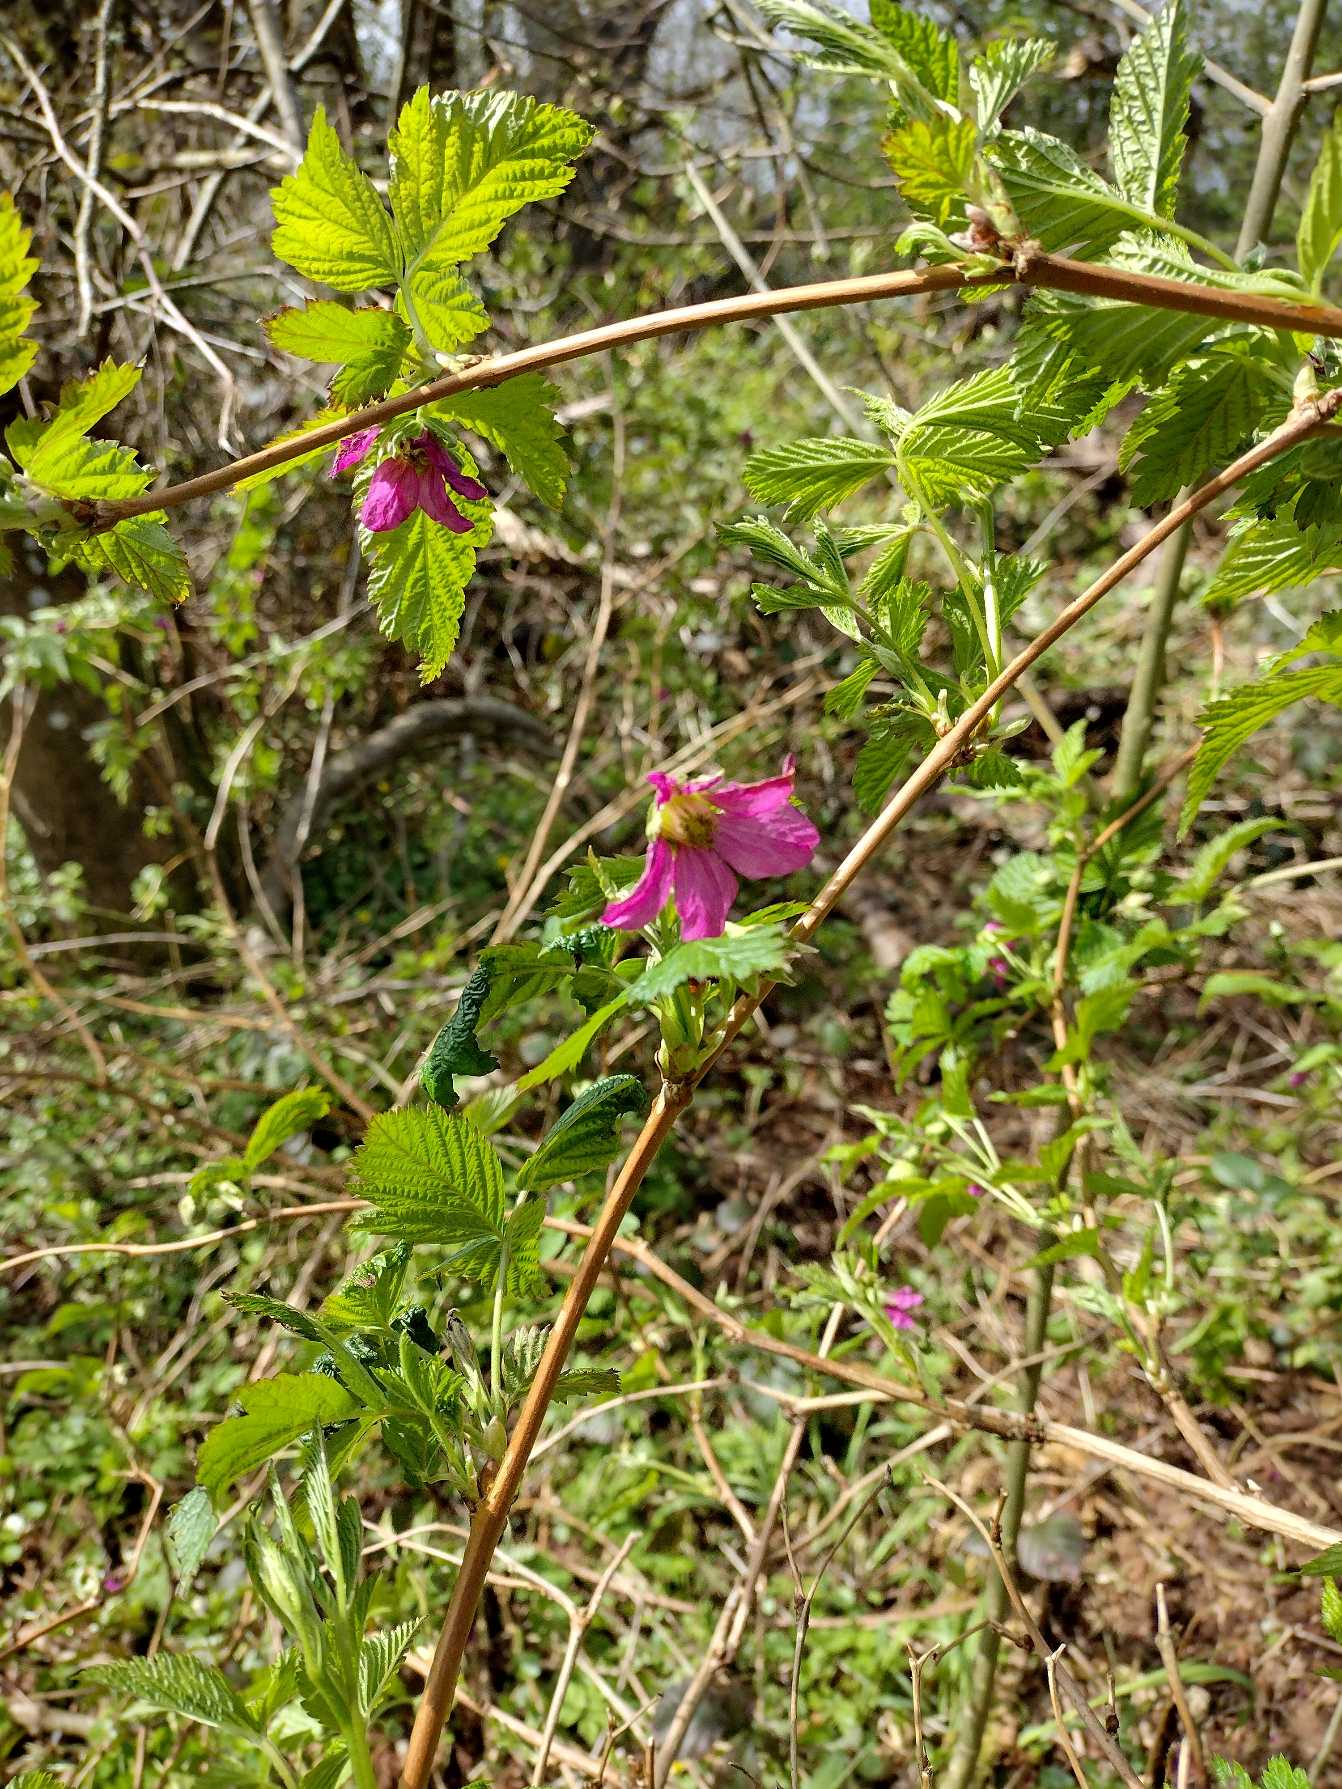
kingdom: Plantae
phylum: Tracheophyta
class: Magnoliopsida
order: Rosales
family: Rosaceae
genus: Rubus
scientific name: Rubus spectabilis
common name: Laksebær
